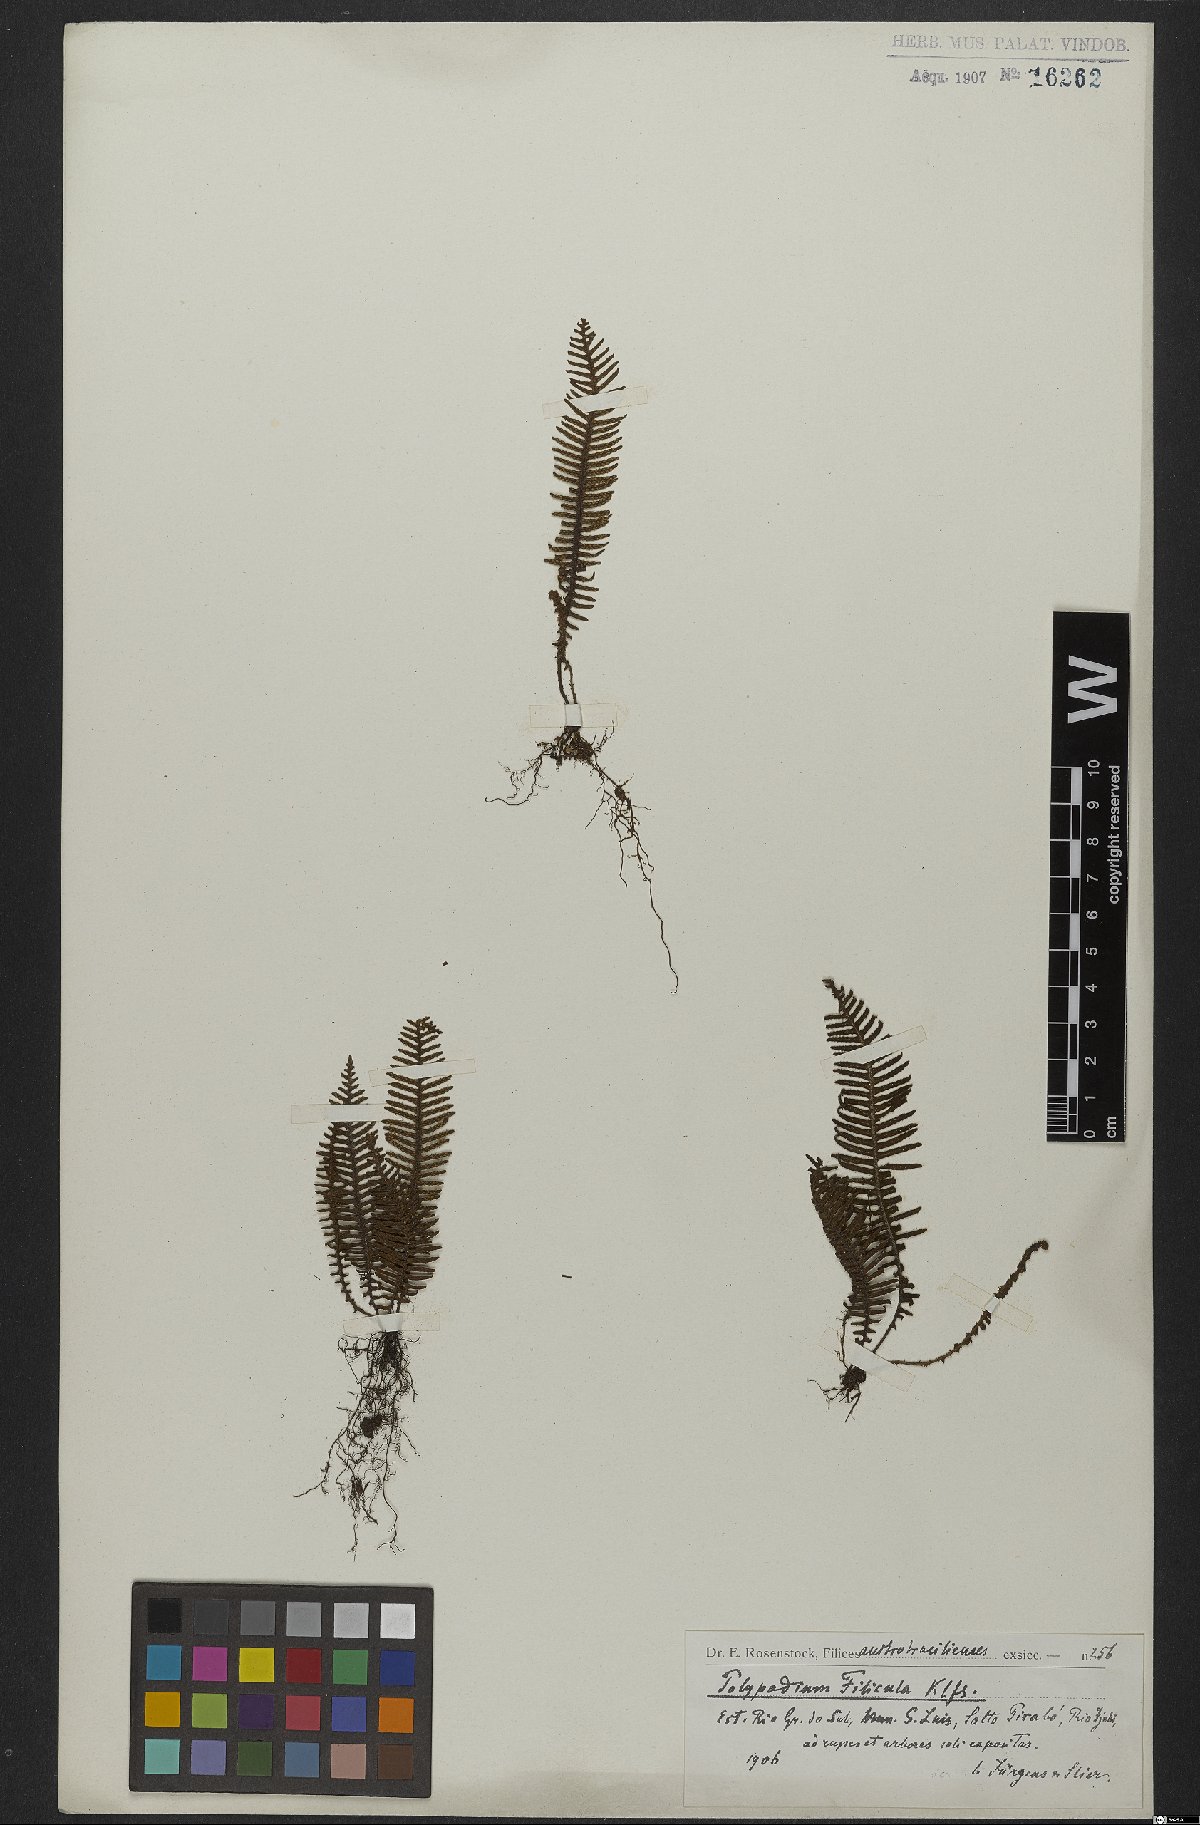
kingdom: Plantae
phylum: Tracheophyta
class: Polypodiopsida
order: Polypodiales
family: Polypodiaceae
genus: Pecluma
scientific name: Pecluma filicula
